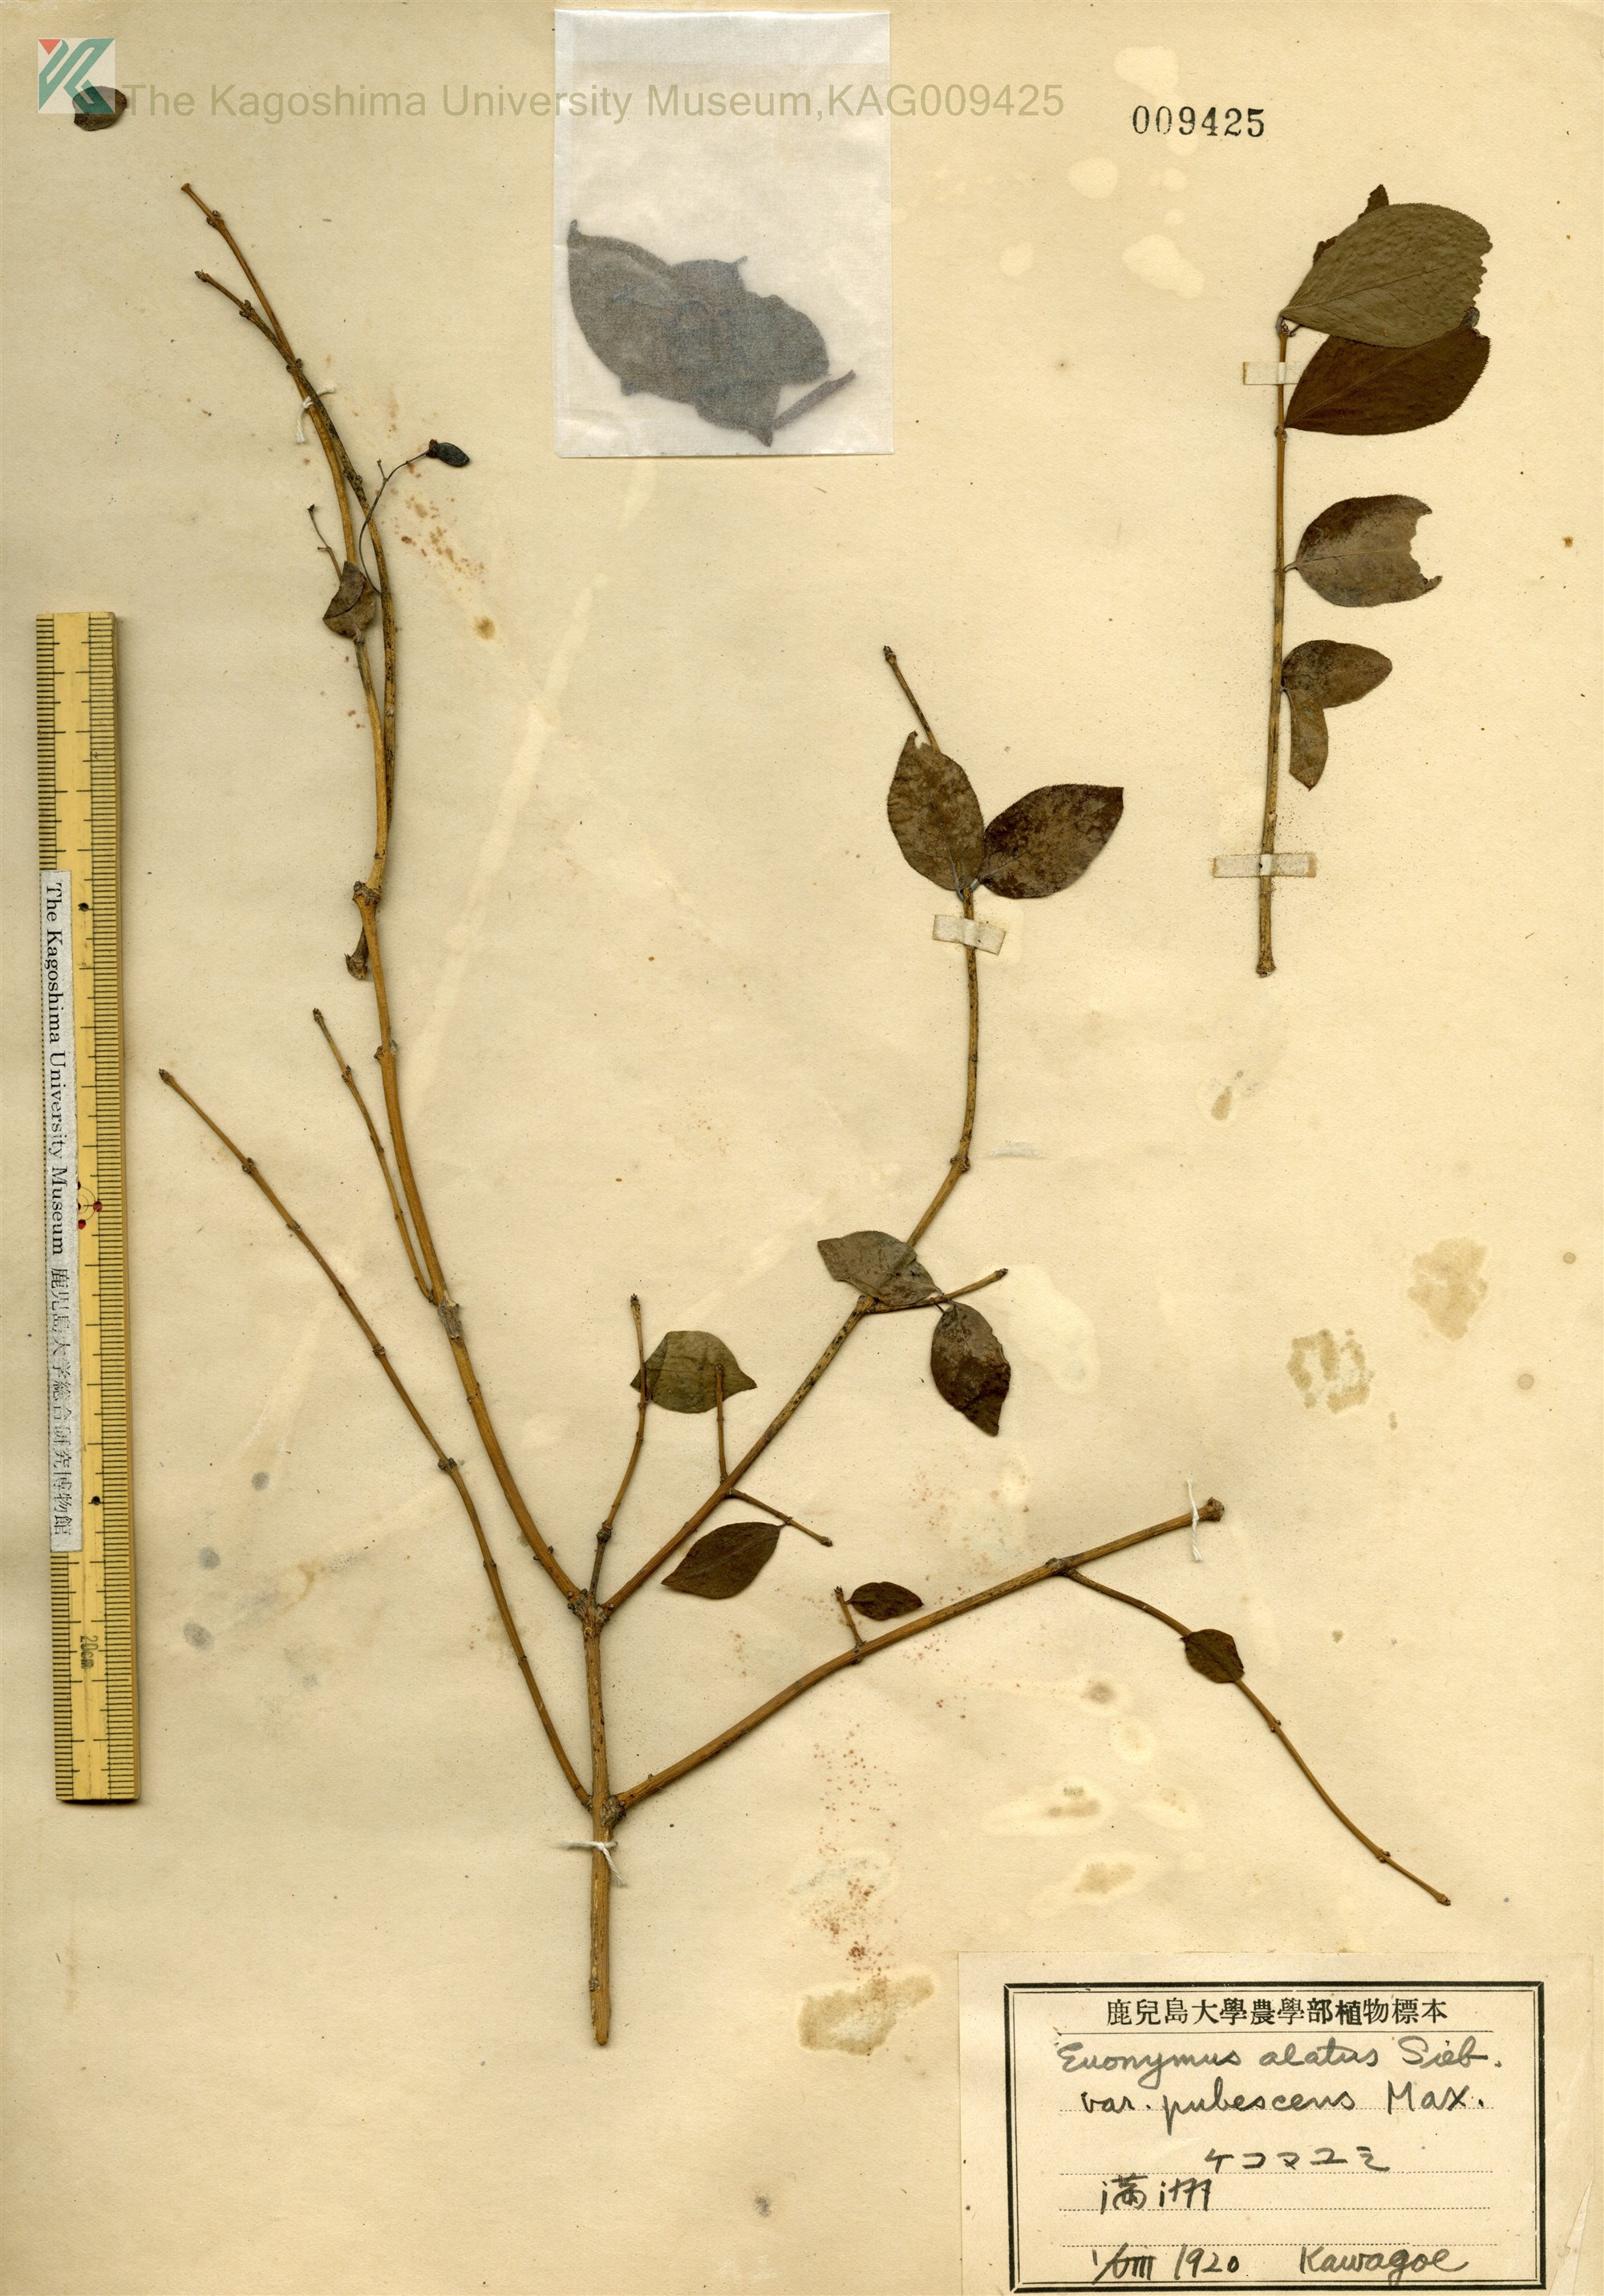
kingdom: Plantae
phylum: Tracheophyta
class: Magnoliopsida
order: Celastrales
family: Celastraceae
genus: Euonymus
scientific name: Euonymus alatus
